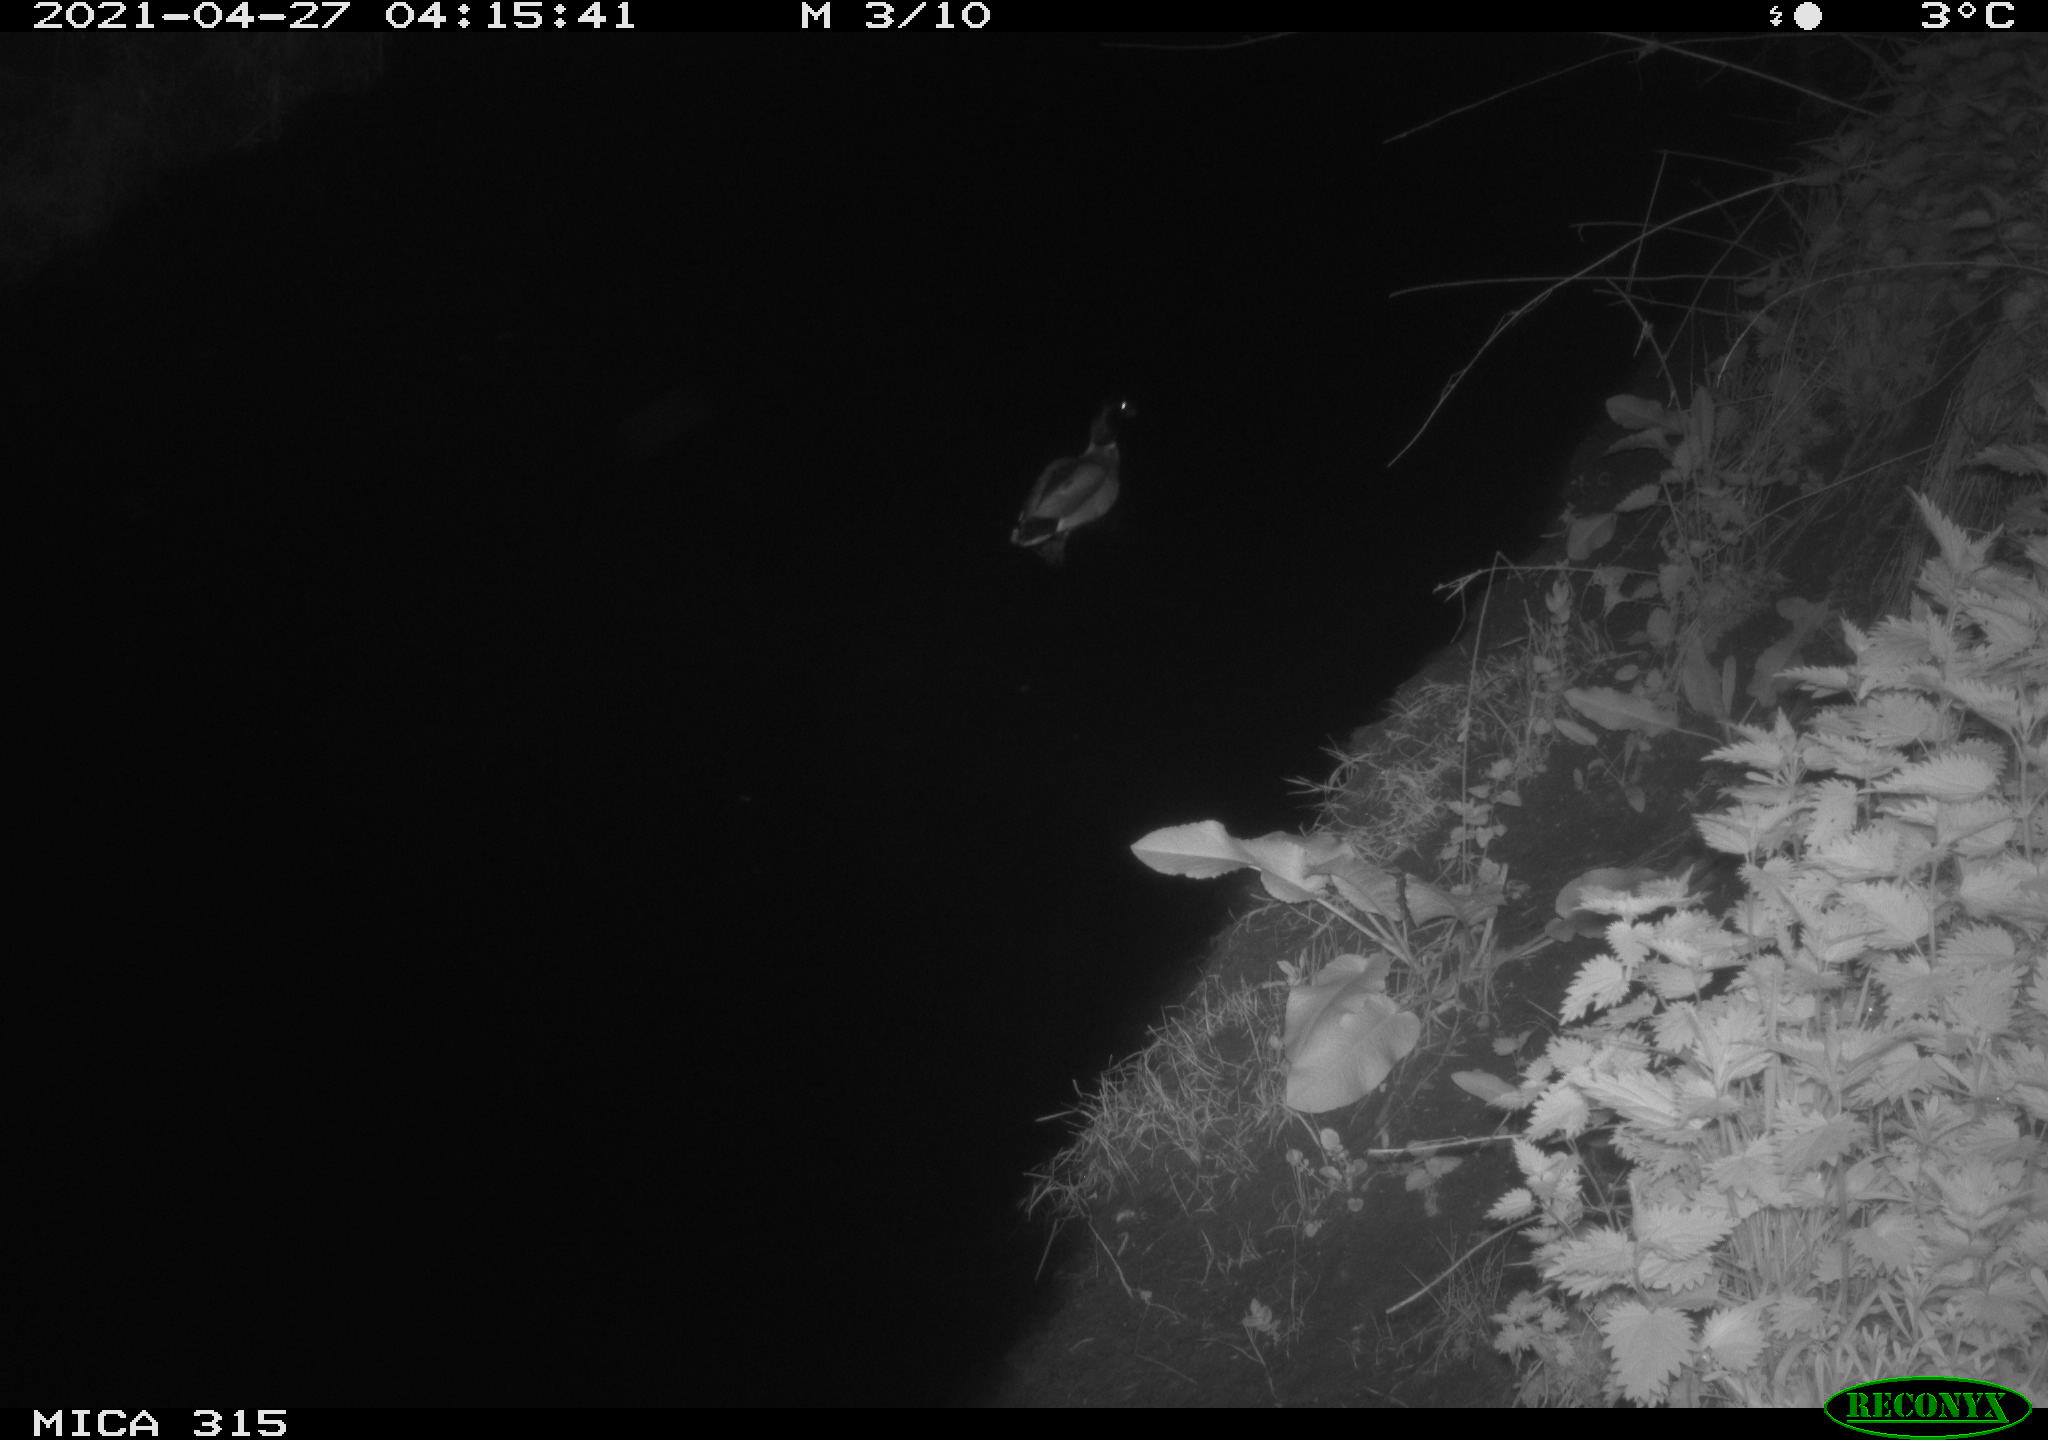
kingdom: Animalia
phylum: Chordata
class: Aves
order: Anseriformes
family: Anatidae
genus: Anas
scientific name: Anas
